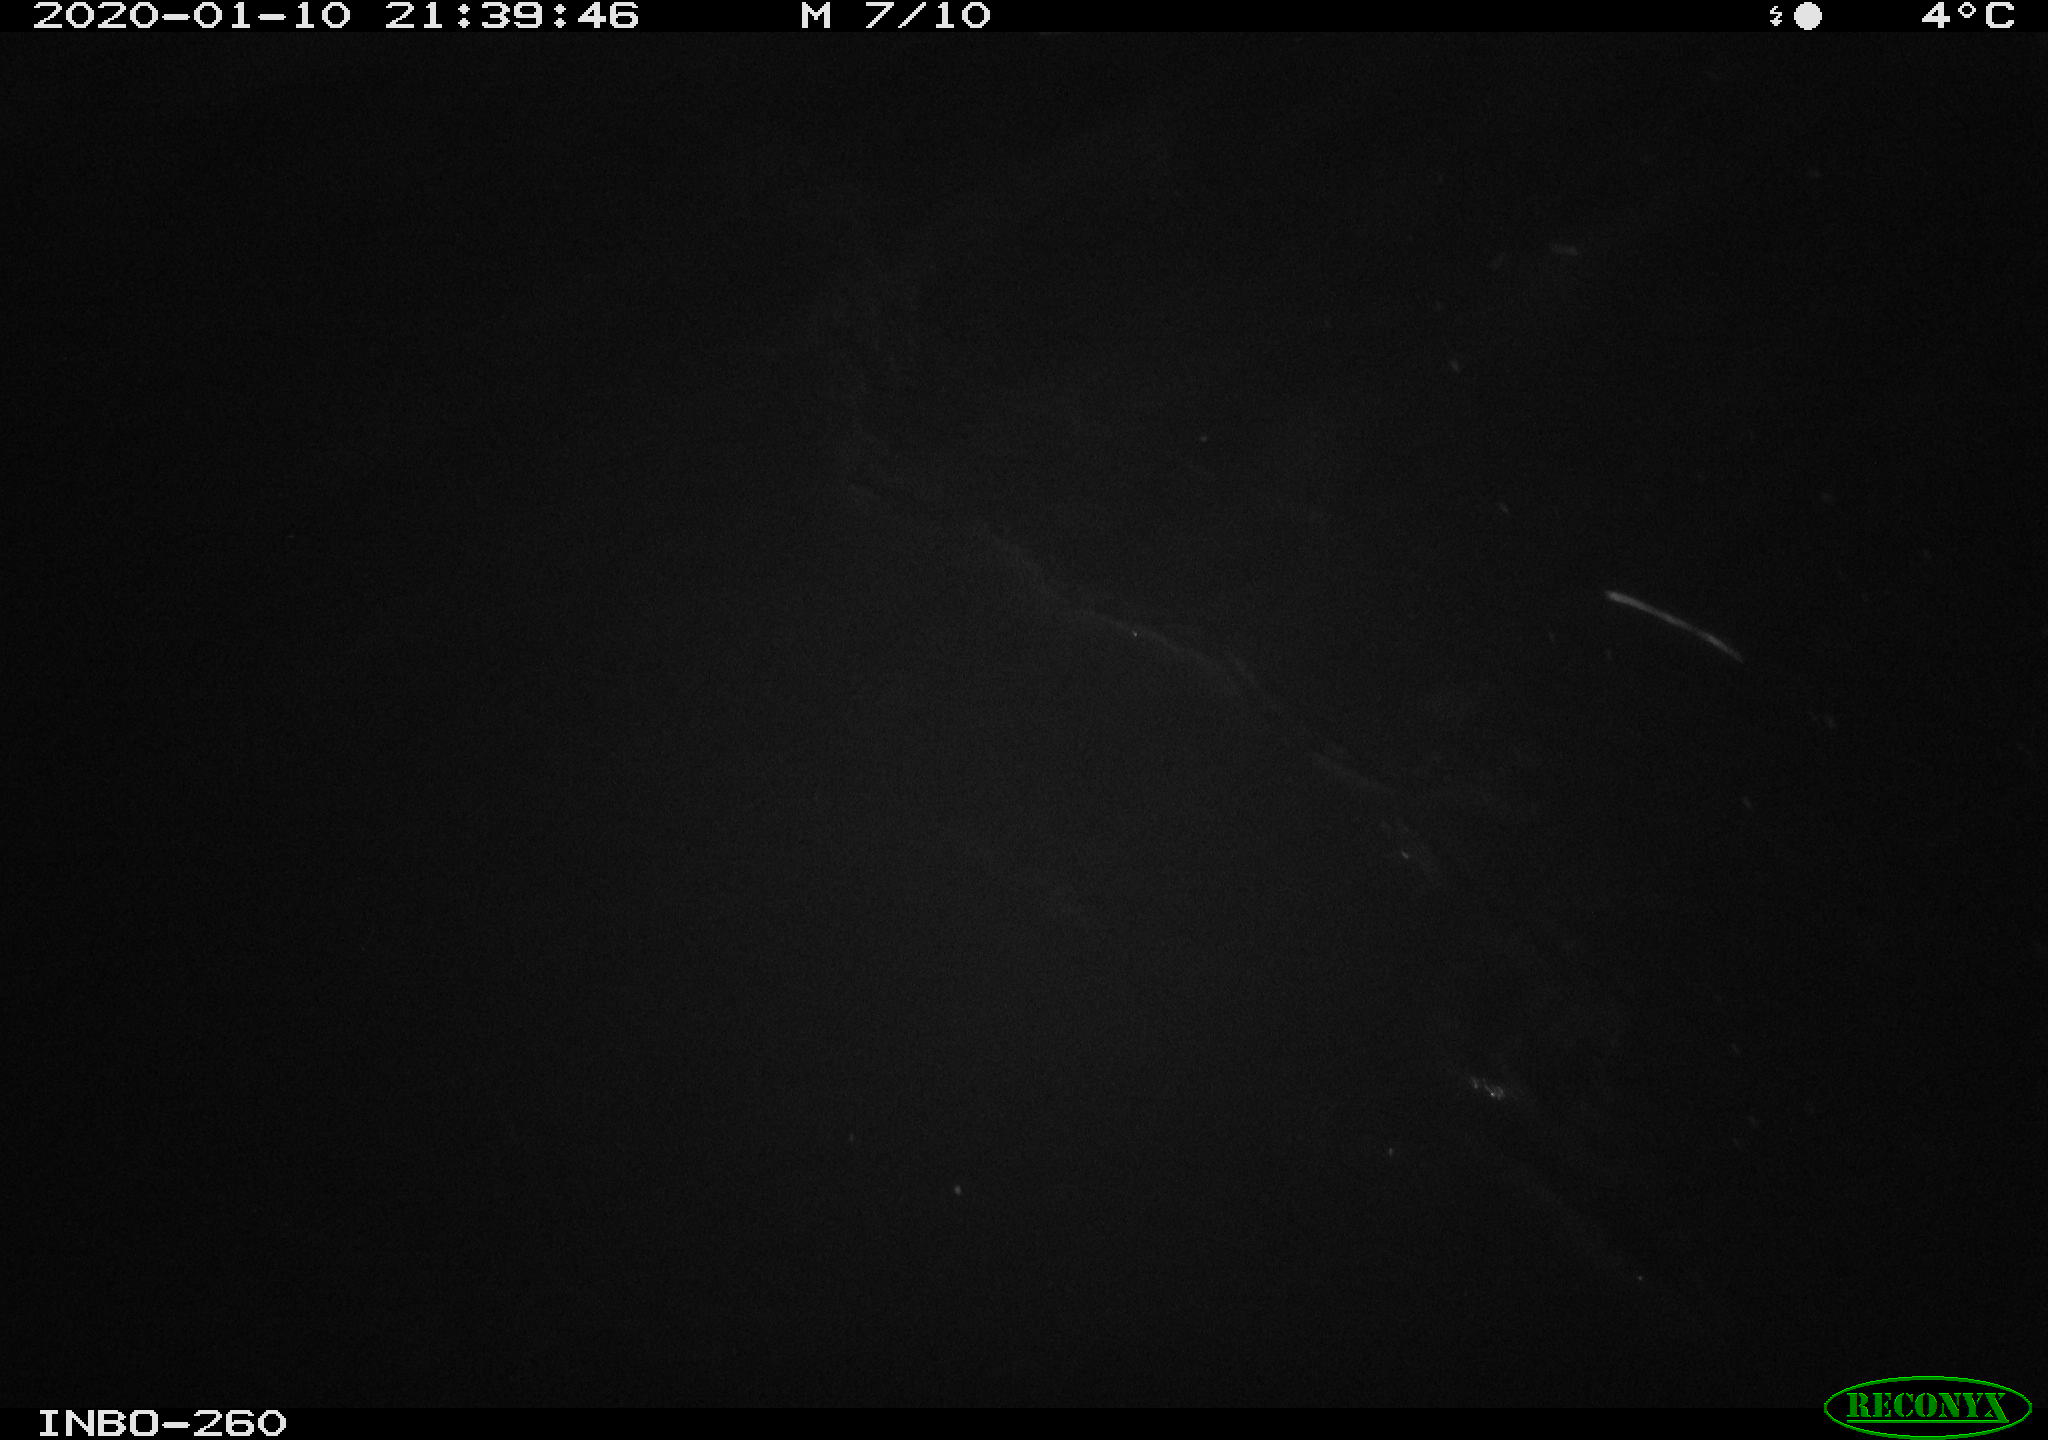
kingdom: Animalia
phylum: Chordata
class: Aves
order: Anseriformes
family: Anatidae
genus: Anas
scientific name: Anas platyrhynchos
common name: Mallard
